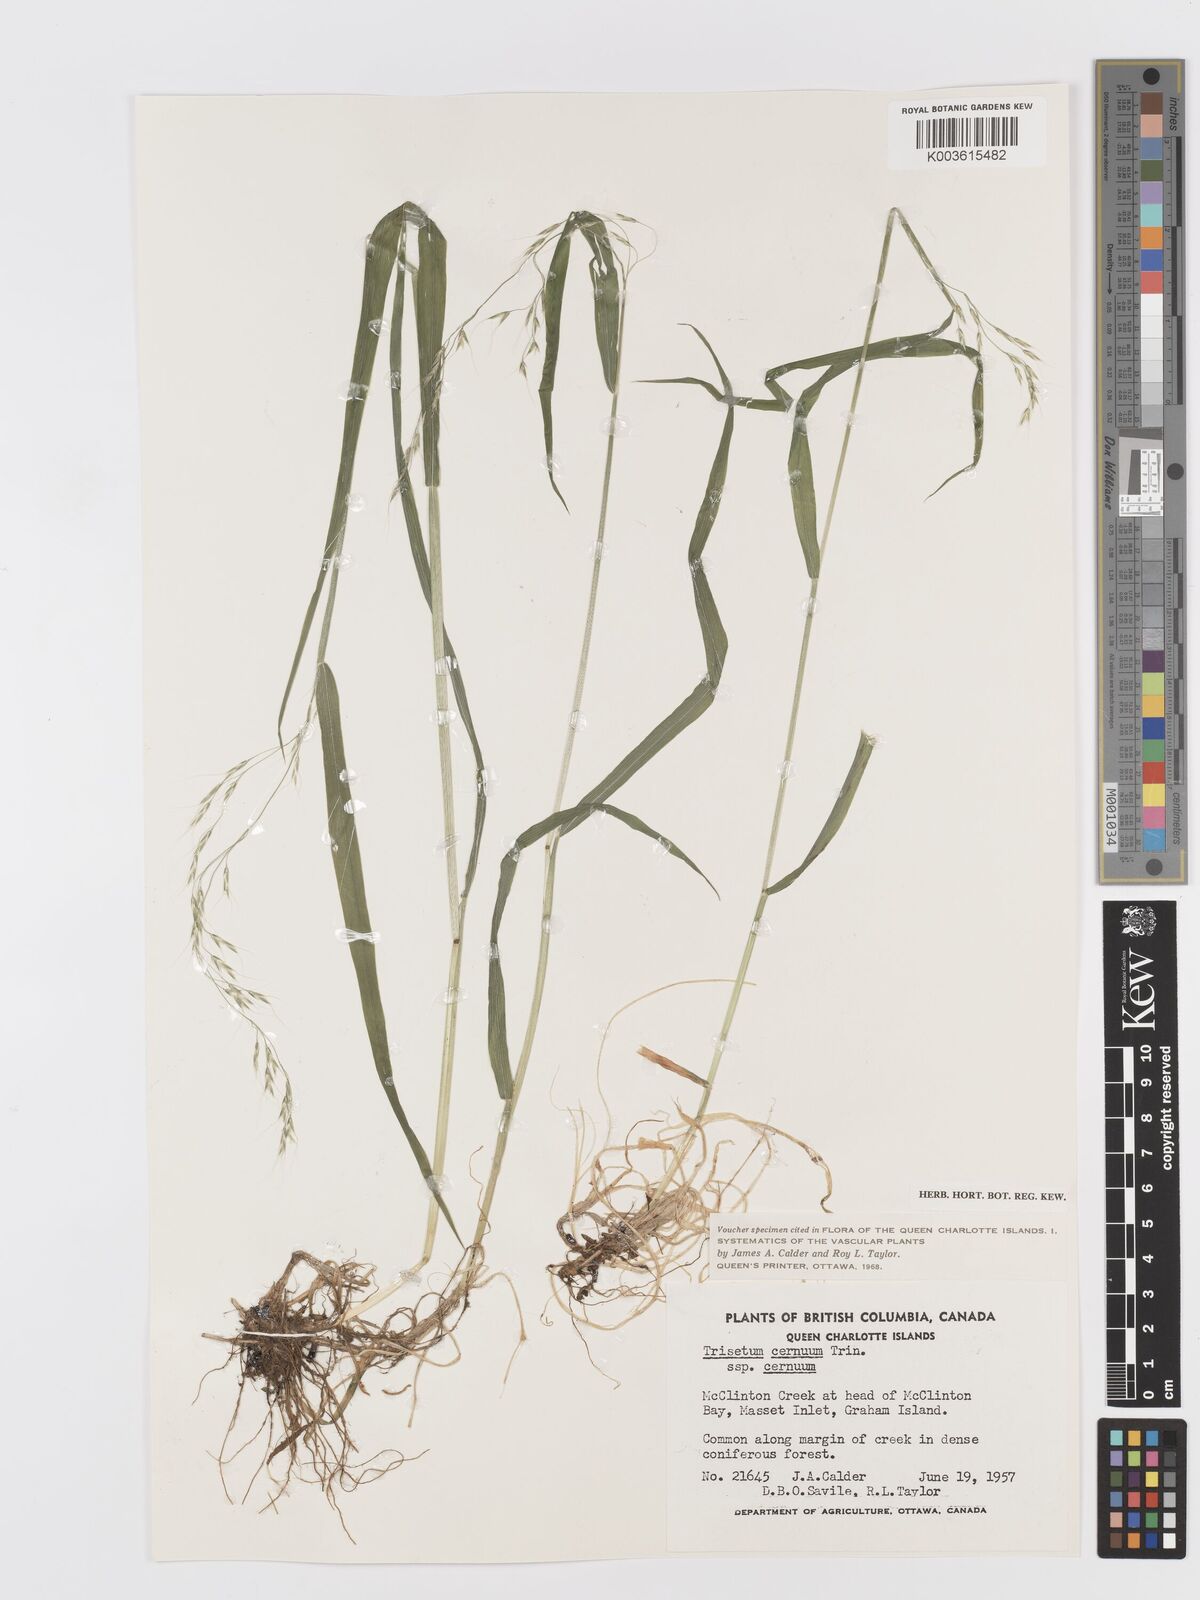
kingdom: Plantae
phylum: Tracheophyta
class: Liliopsida
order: Poales
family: Poaceae
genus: Graphephorum
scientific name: Graphephorum cernuum
